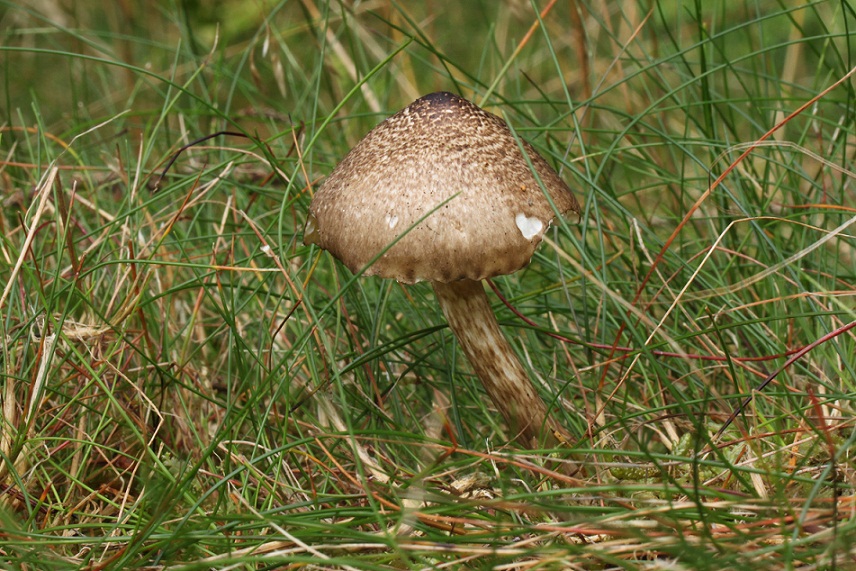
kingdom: Fungi
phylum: Basidiomycota
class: Agaricomycetes
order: Agaricales
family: Hygrophoraceae
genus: Hygrophorus
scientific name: Hygrophorus olivaceoalbus
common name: hvidbrun sneglehat
